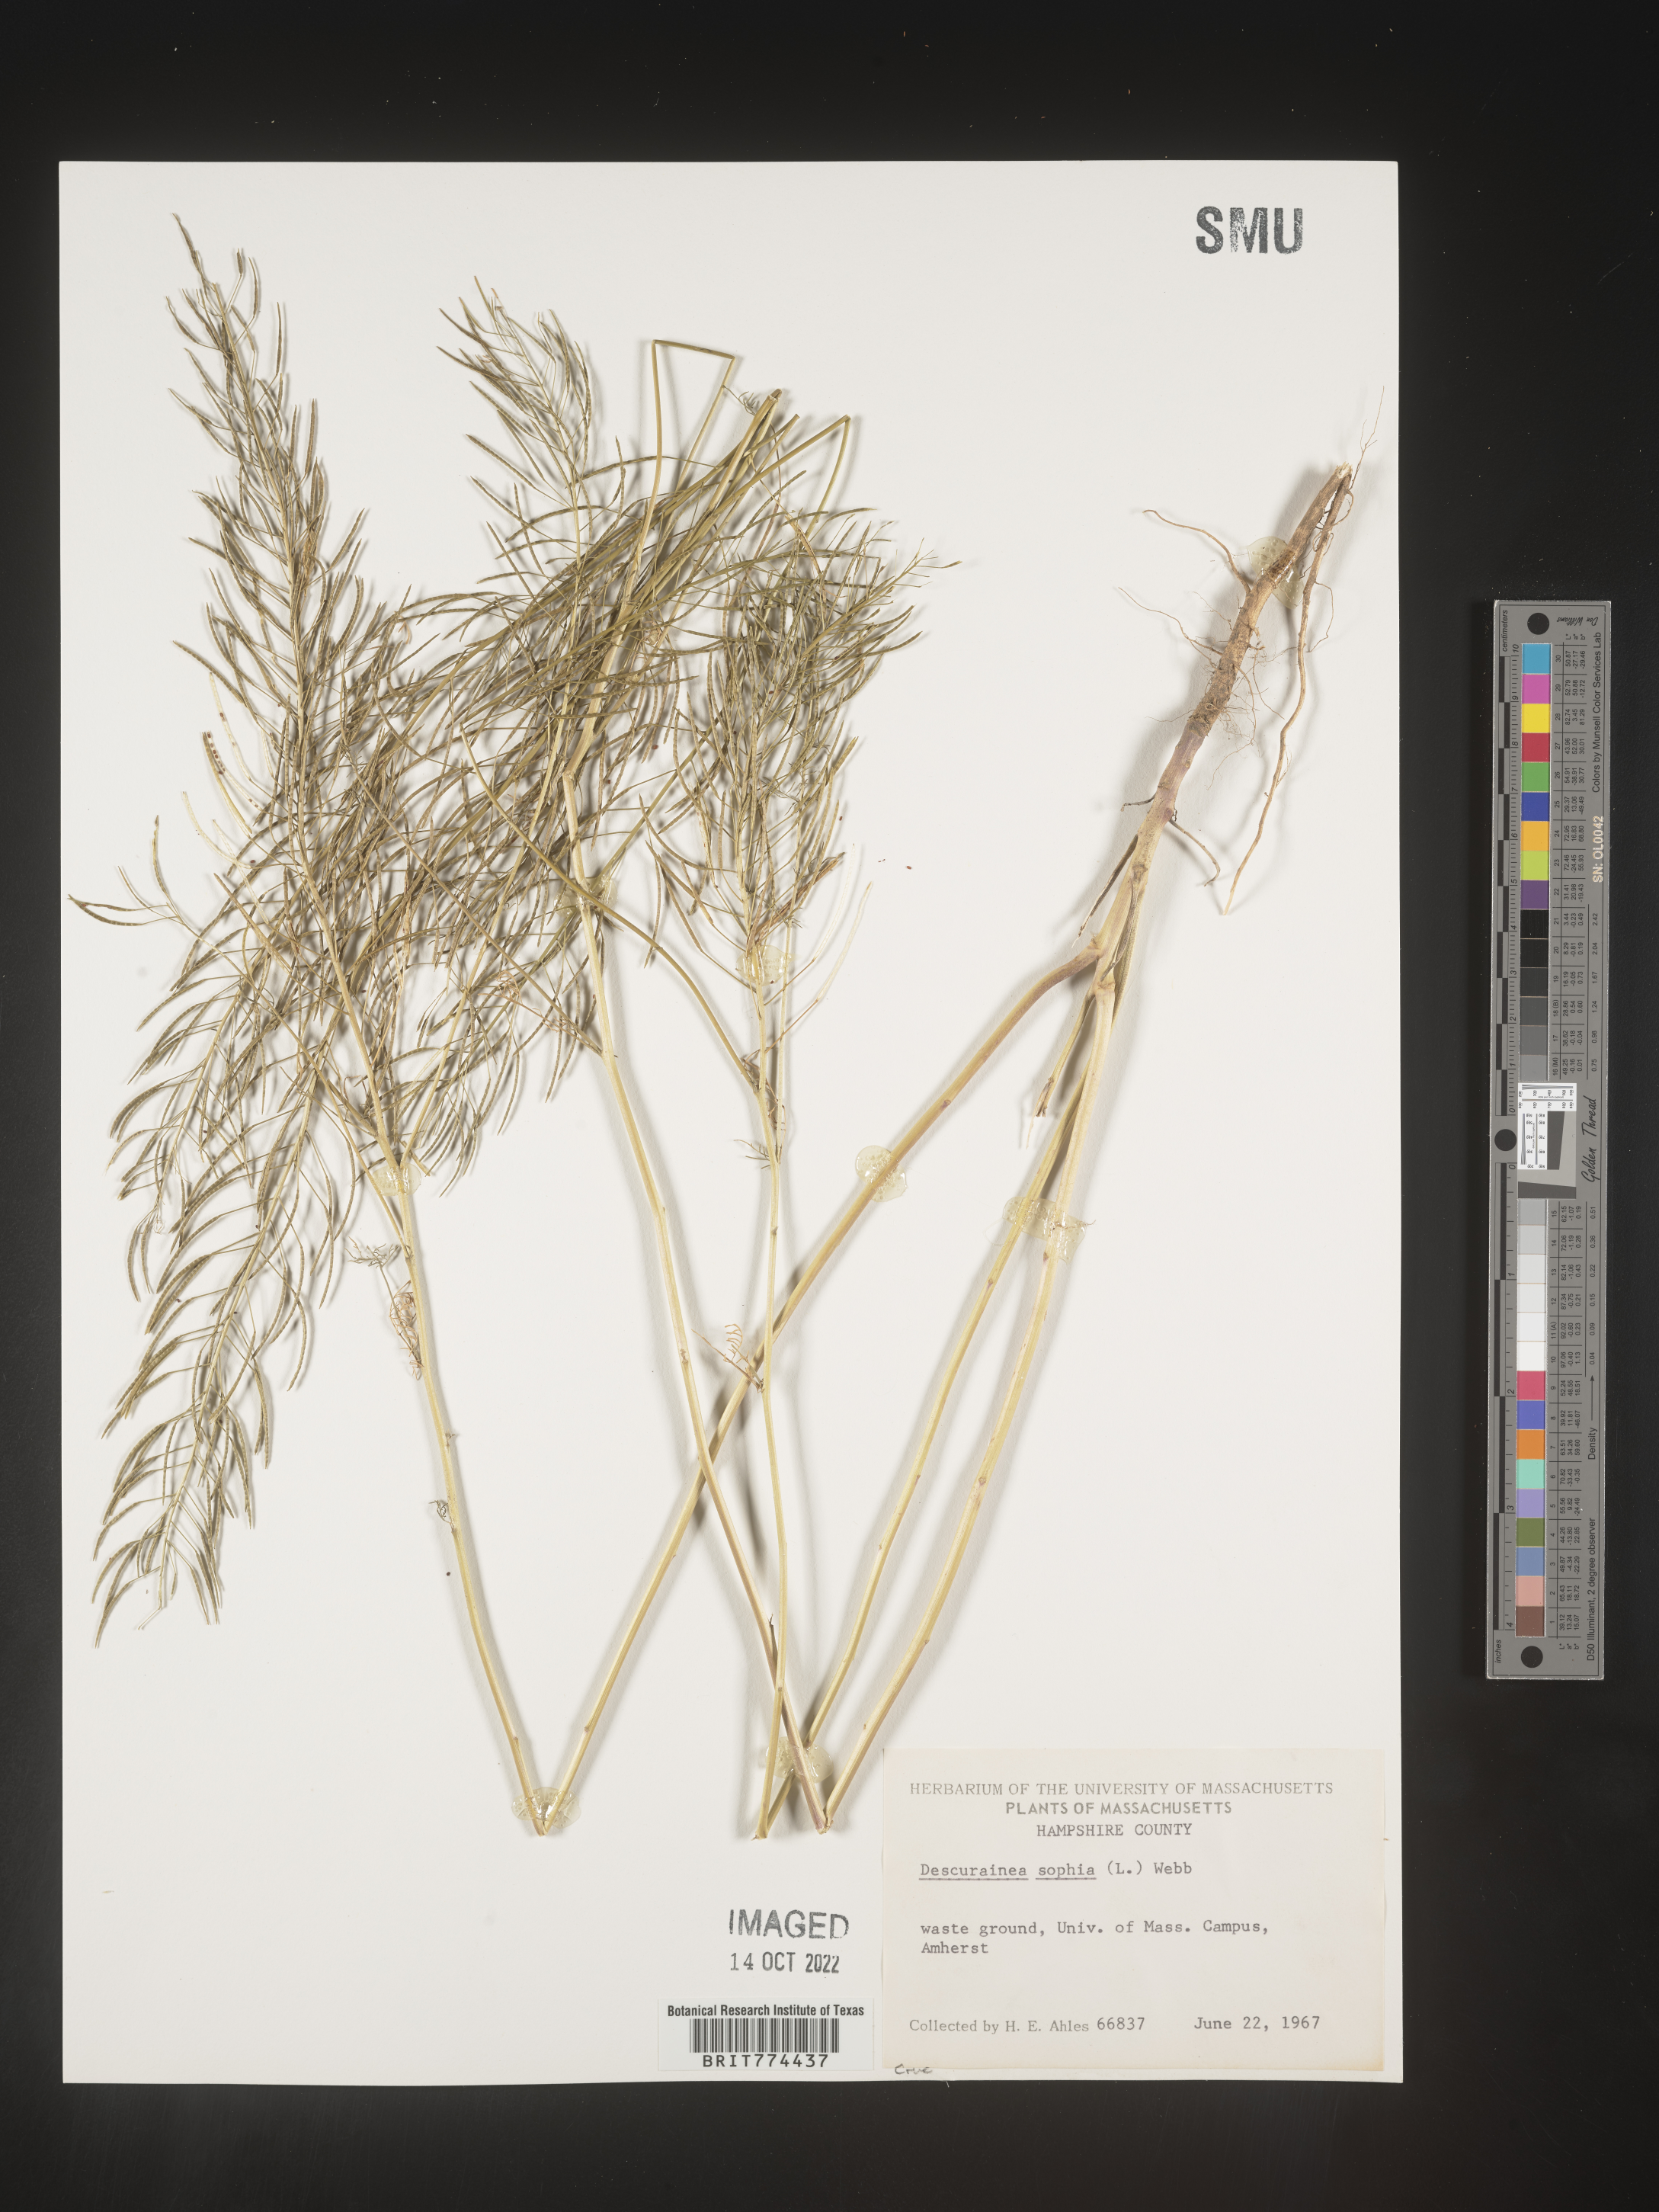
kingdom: Plantae
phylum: Tracheophyta
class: Magnoliopsida
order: Brassicales
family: Brassicaceae
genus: Descurainia
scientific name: Descurainia sophia
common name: Flixweed
